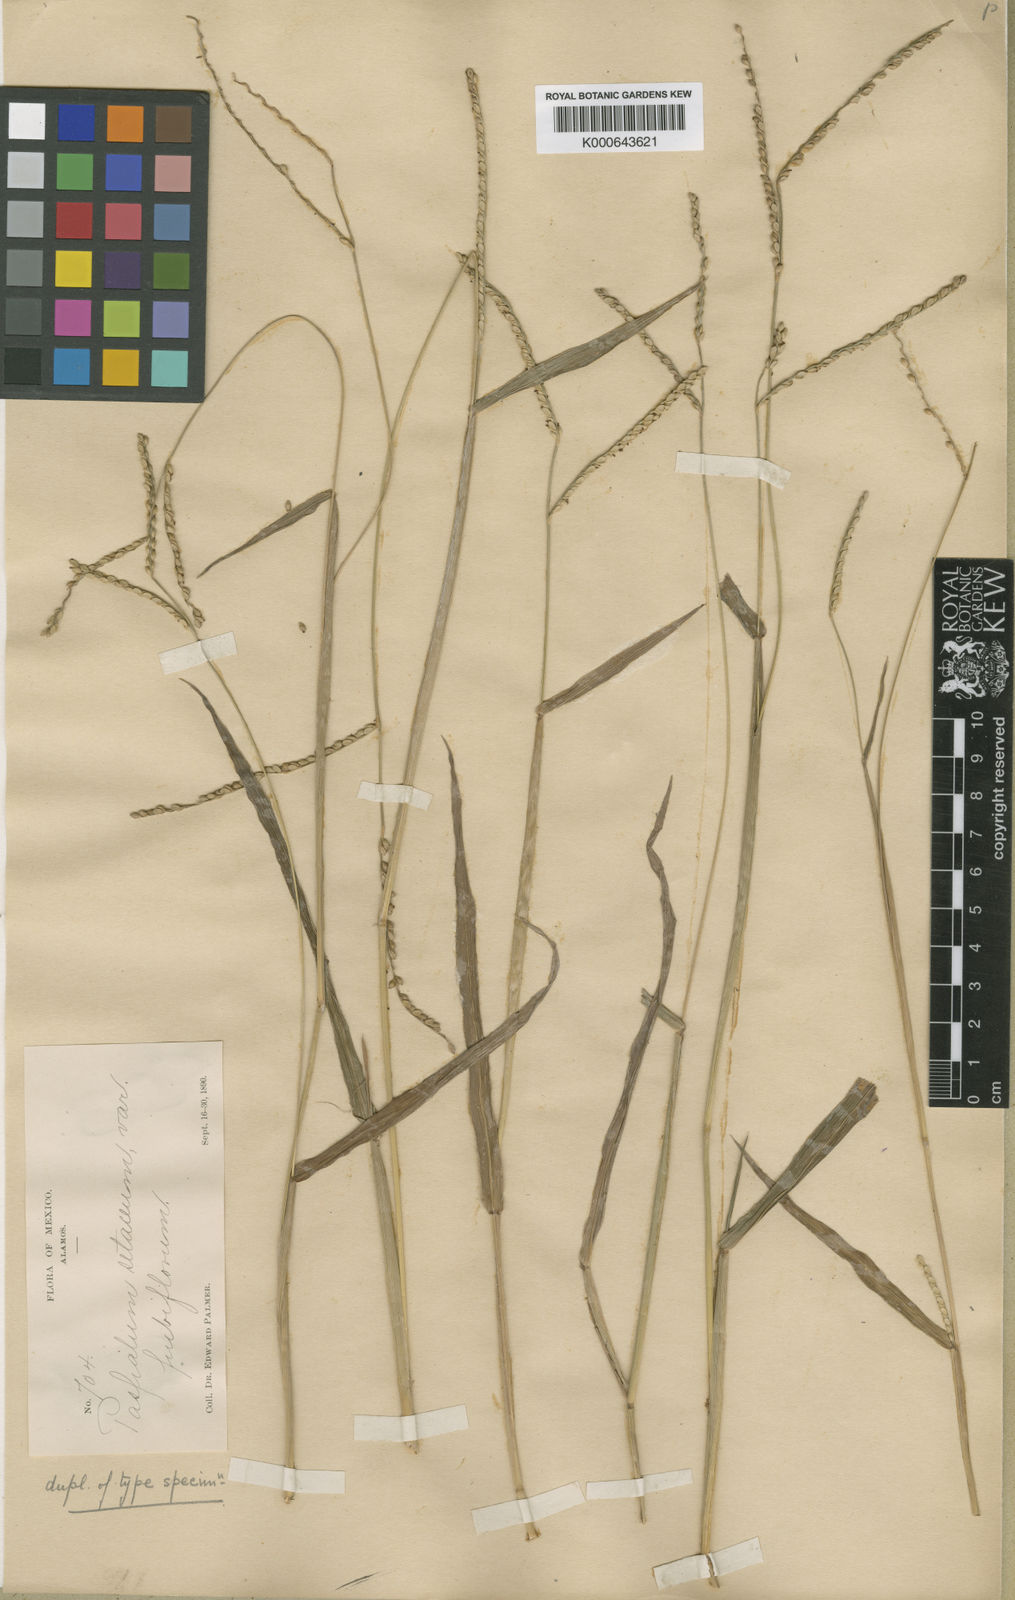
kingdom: Plantae
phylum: Tracheophyta
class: Liliopsida
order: Poales
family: Poaceae
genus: Paspalum
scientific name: Paspalum palmeri
